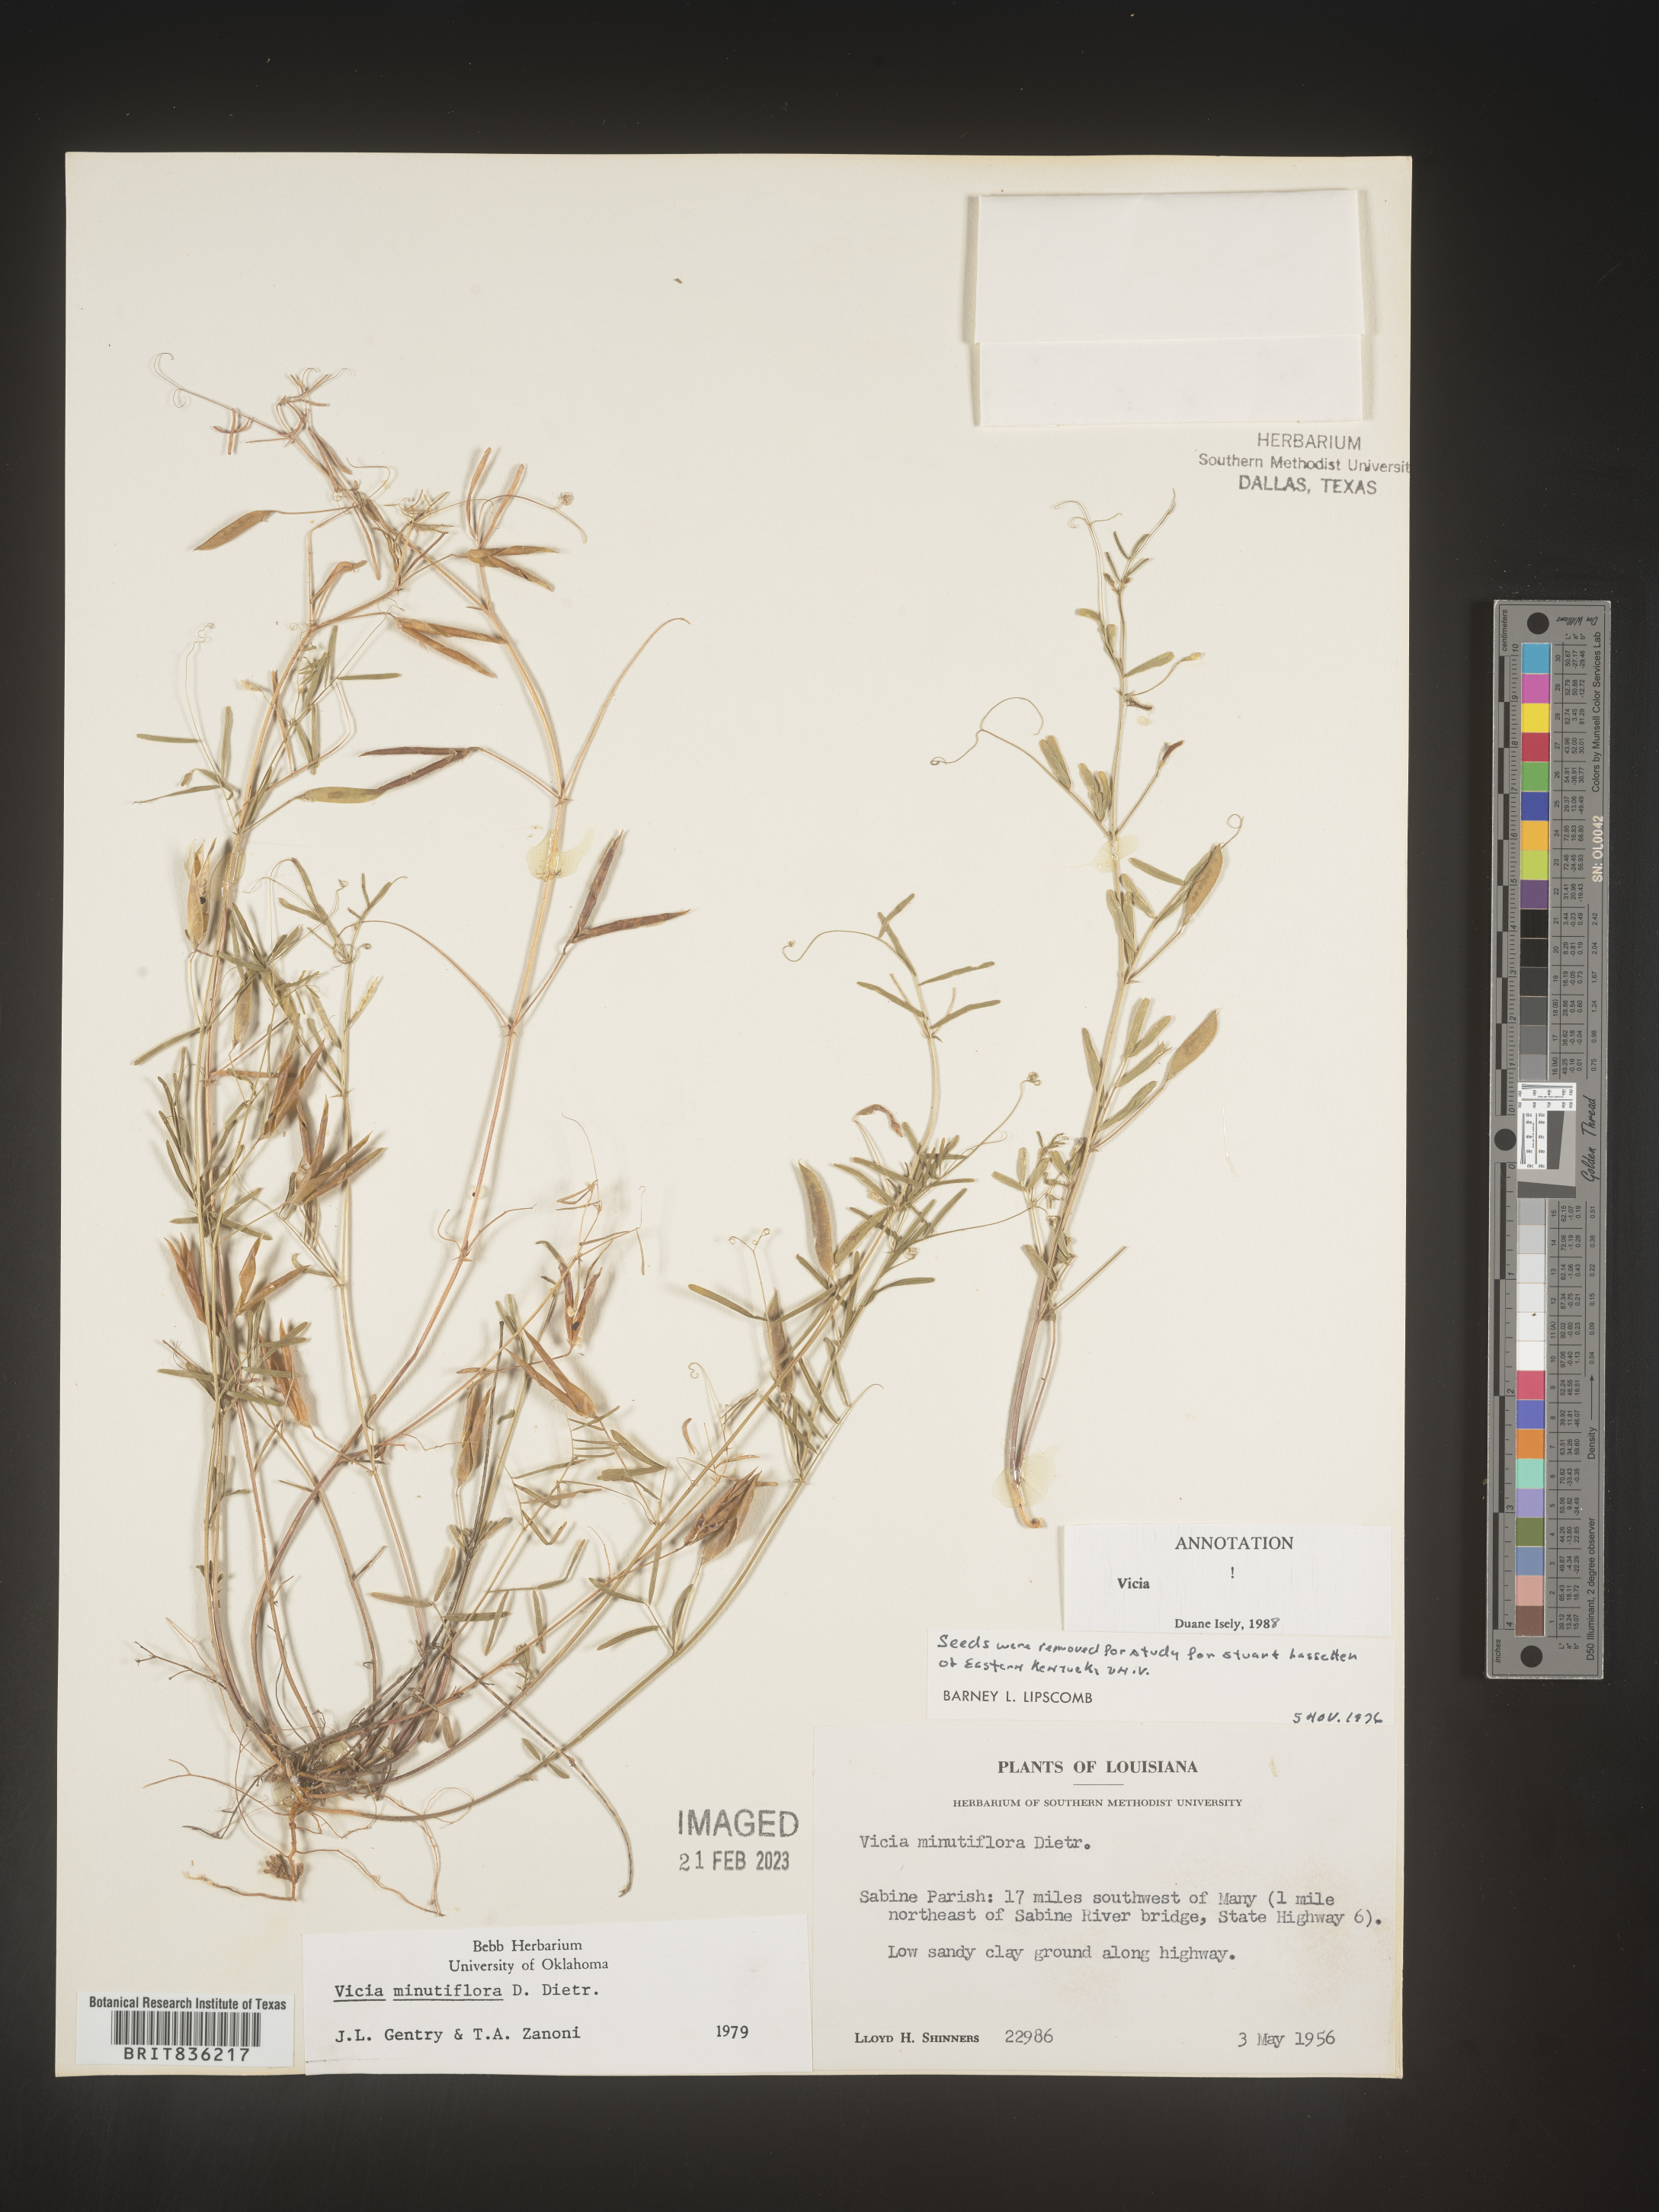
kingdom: Plantae
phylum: Tracheophyta
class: Magnoliopsida
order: Fabales
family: Fabaceae
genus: Vicia
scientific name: Vicia minutiflora
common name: Pygmy-flower vetch
